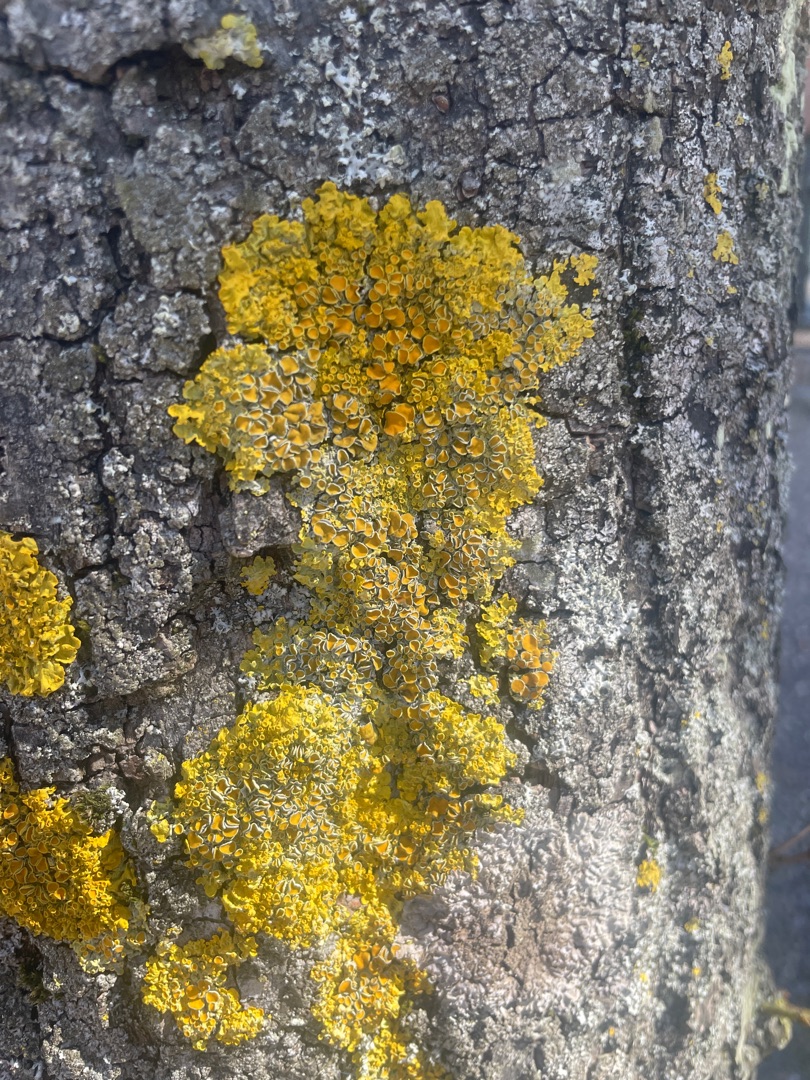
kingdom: Fungi
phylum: Ascomycota
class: Lecanoromycetes
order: Teloschistales
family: Teloschistaceae
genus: Xanthoria
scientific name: Xanthoria parietina
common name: Almindelig væggelav
